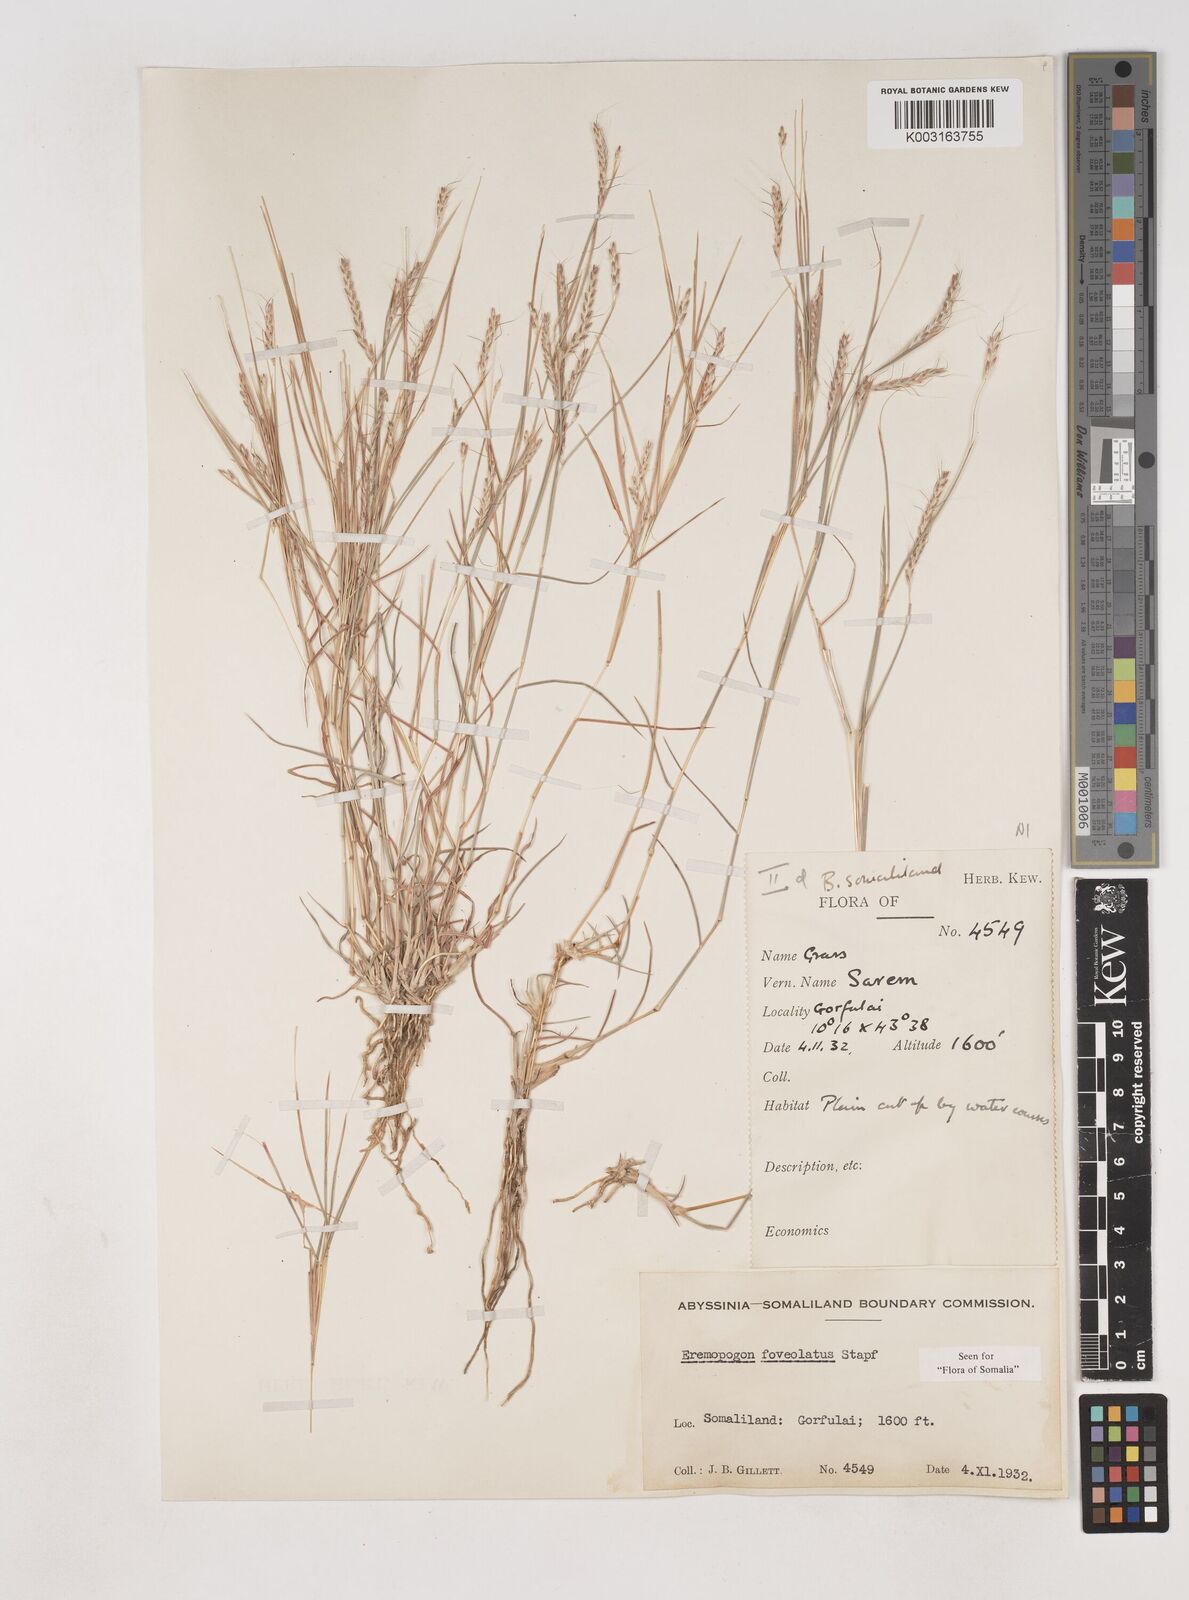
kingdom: Plantae
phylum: Tracheophyta
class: Liliopsida
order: Poales
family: Poaceae
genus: Dichanthium
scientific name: Dichanthium foveolatum
